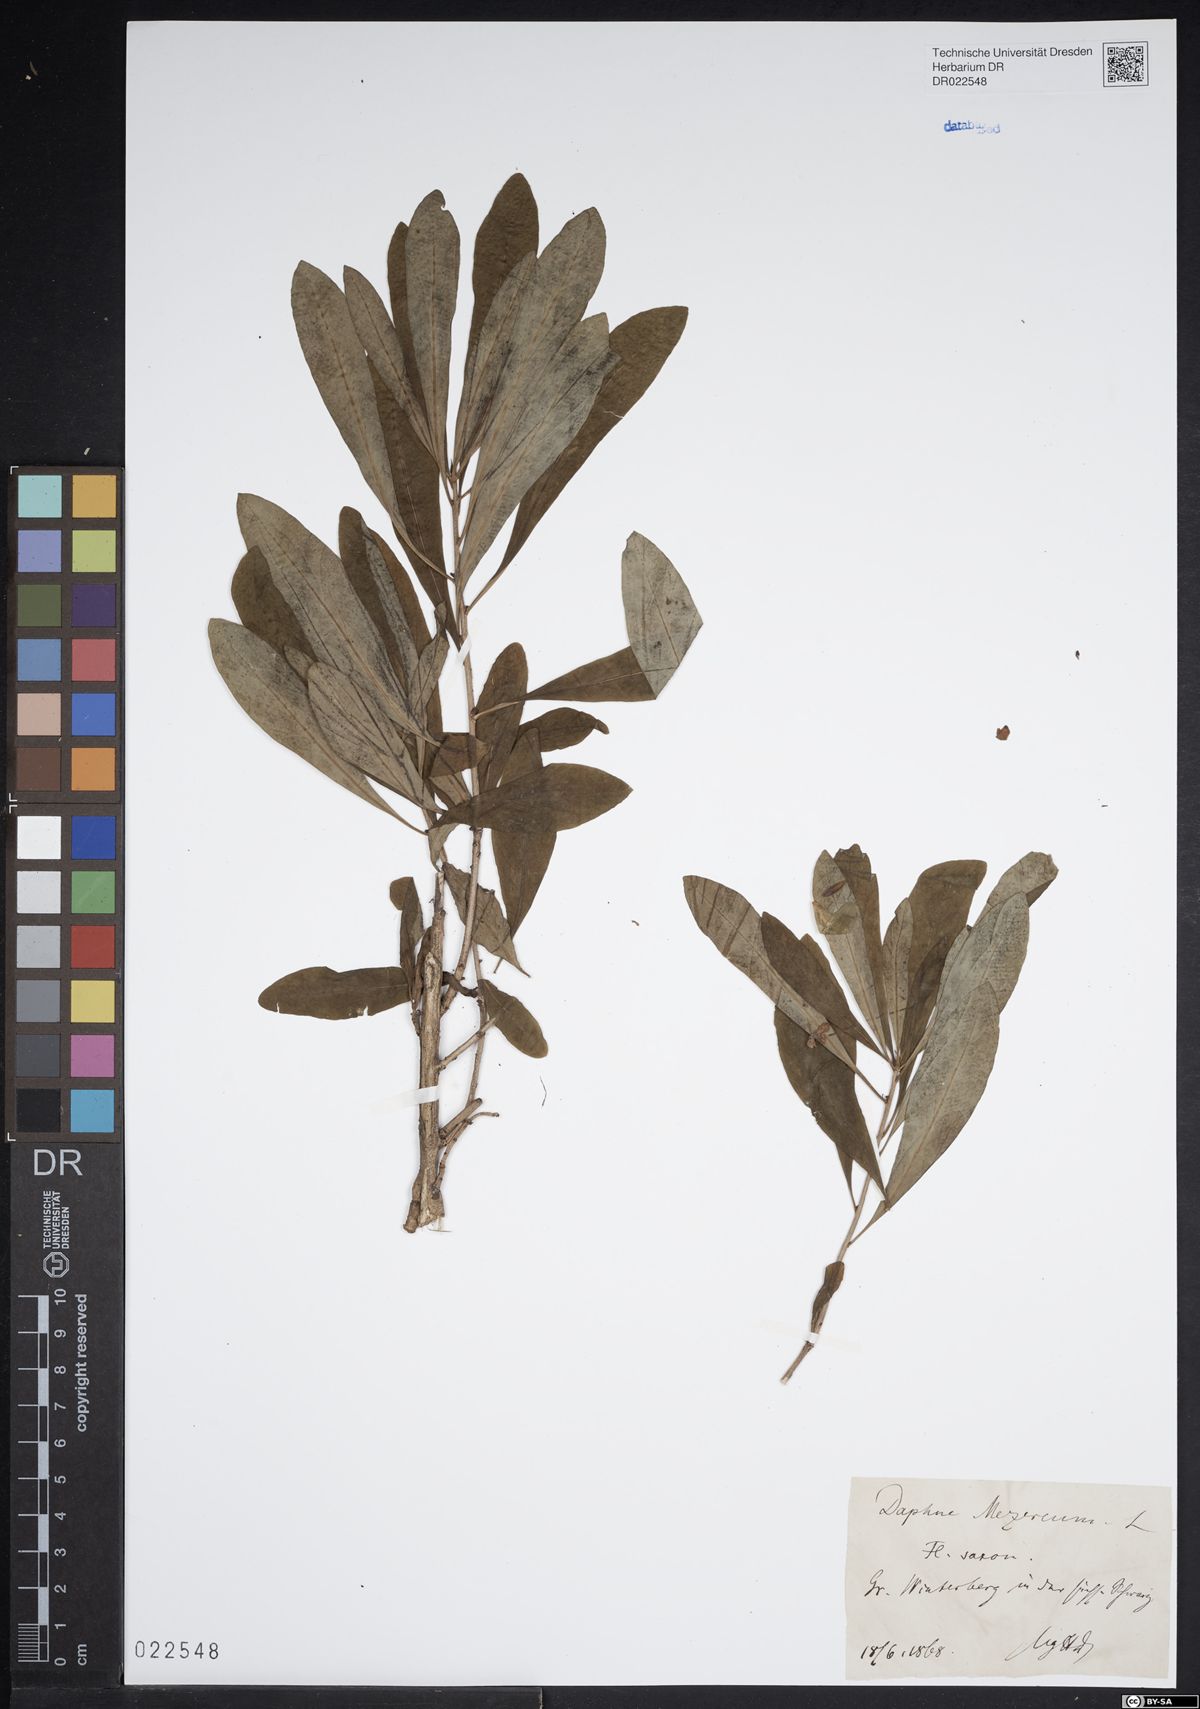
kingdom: Plantae
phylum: Tracheophyta
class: Magnoliopsida
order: Malvales
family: Thymelaeaceae
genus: Daphne
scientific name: Daphne mezereum
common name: Mezereon
